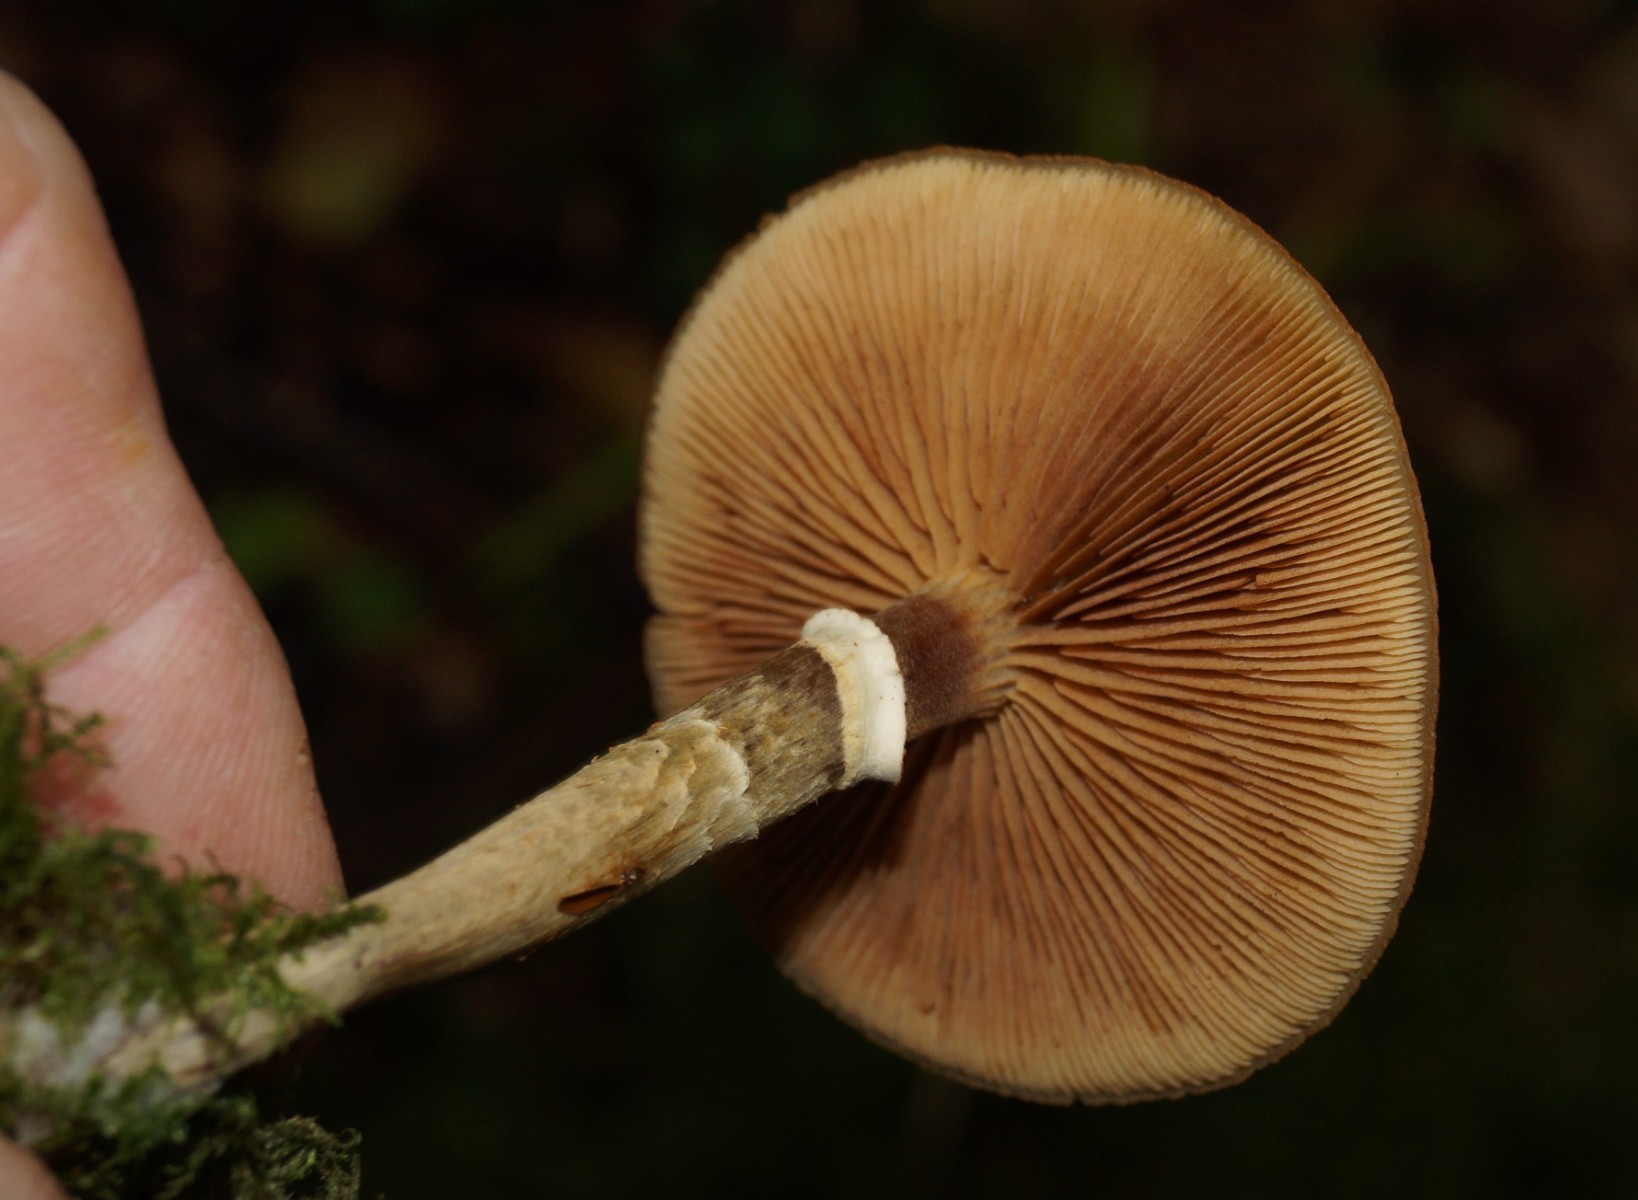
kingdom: Fungi
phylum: Basidiomycota
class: Agaricomycetes
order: Agaricales
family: Hymenogastraceae
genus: Galerina
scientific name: Galerina marginata
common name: randbæltet hjelmhat
